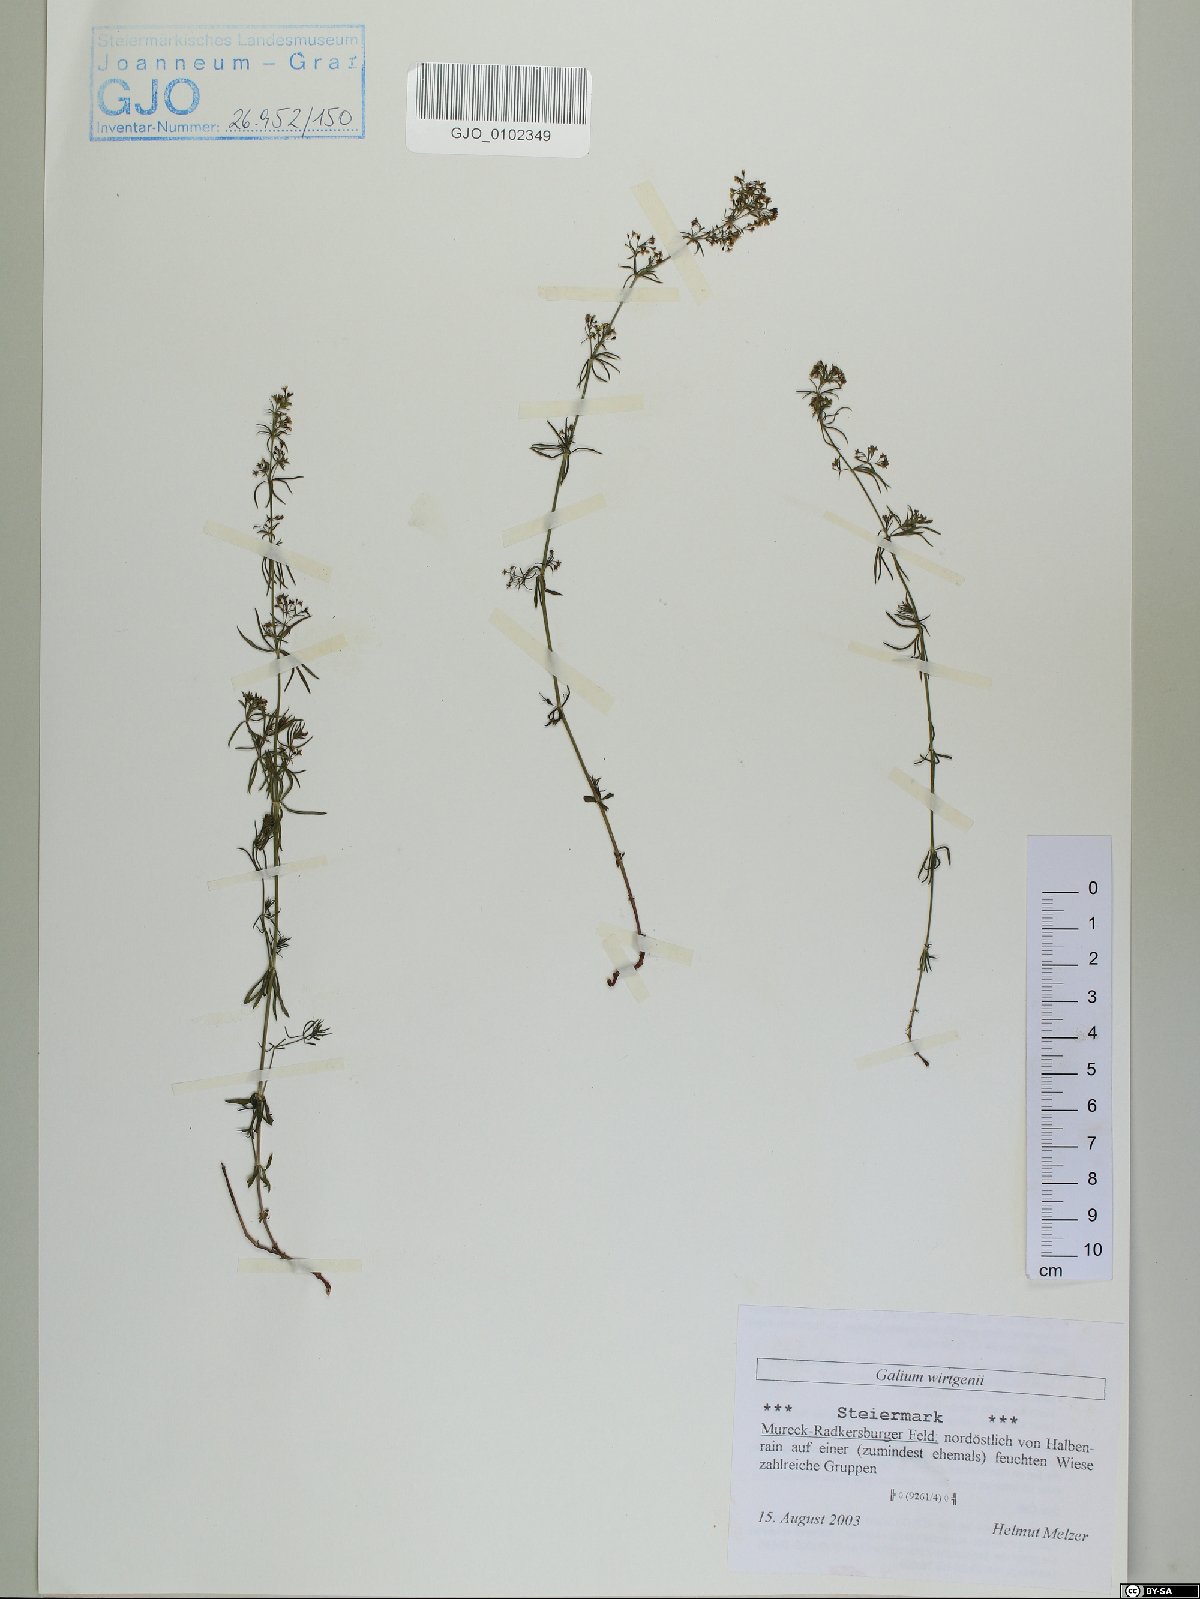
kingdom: Plantae
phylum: Tracheophyta
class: Magnoliopsida
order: Gentianales
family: Rubiaceae
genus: Galium
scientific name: Galium verum
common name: Lady's bedstraw
